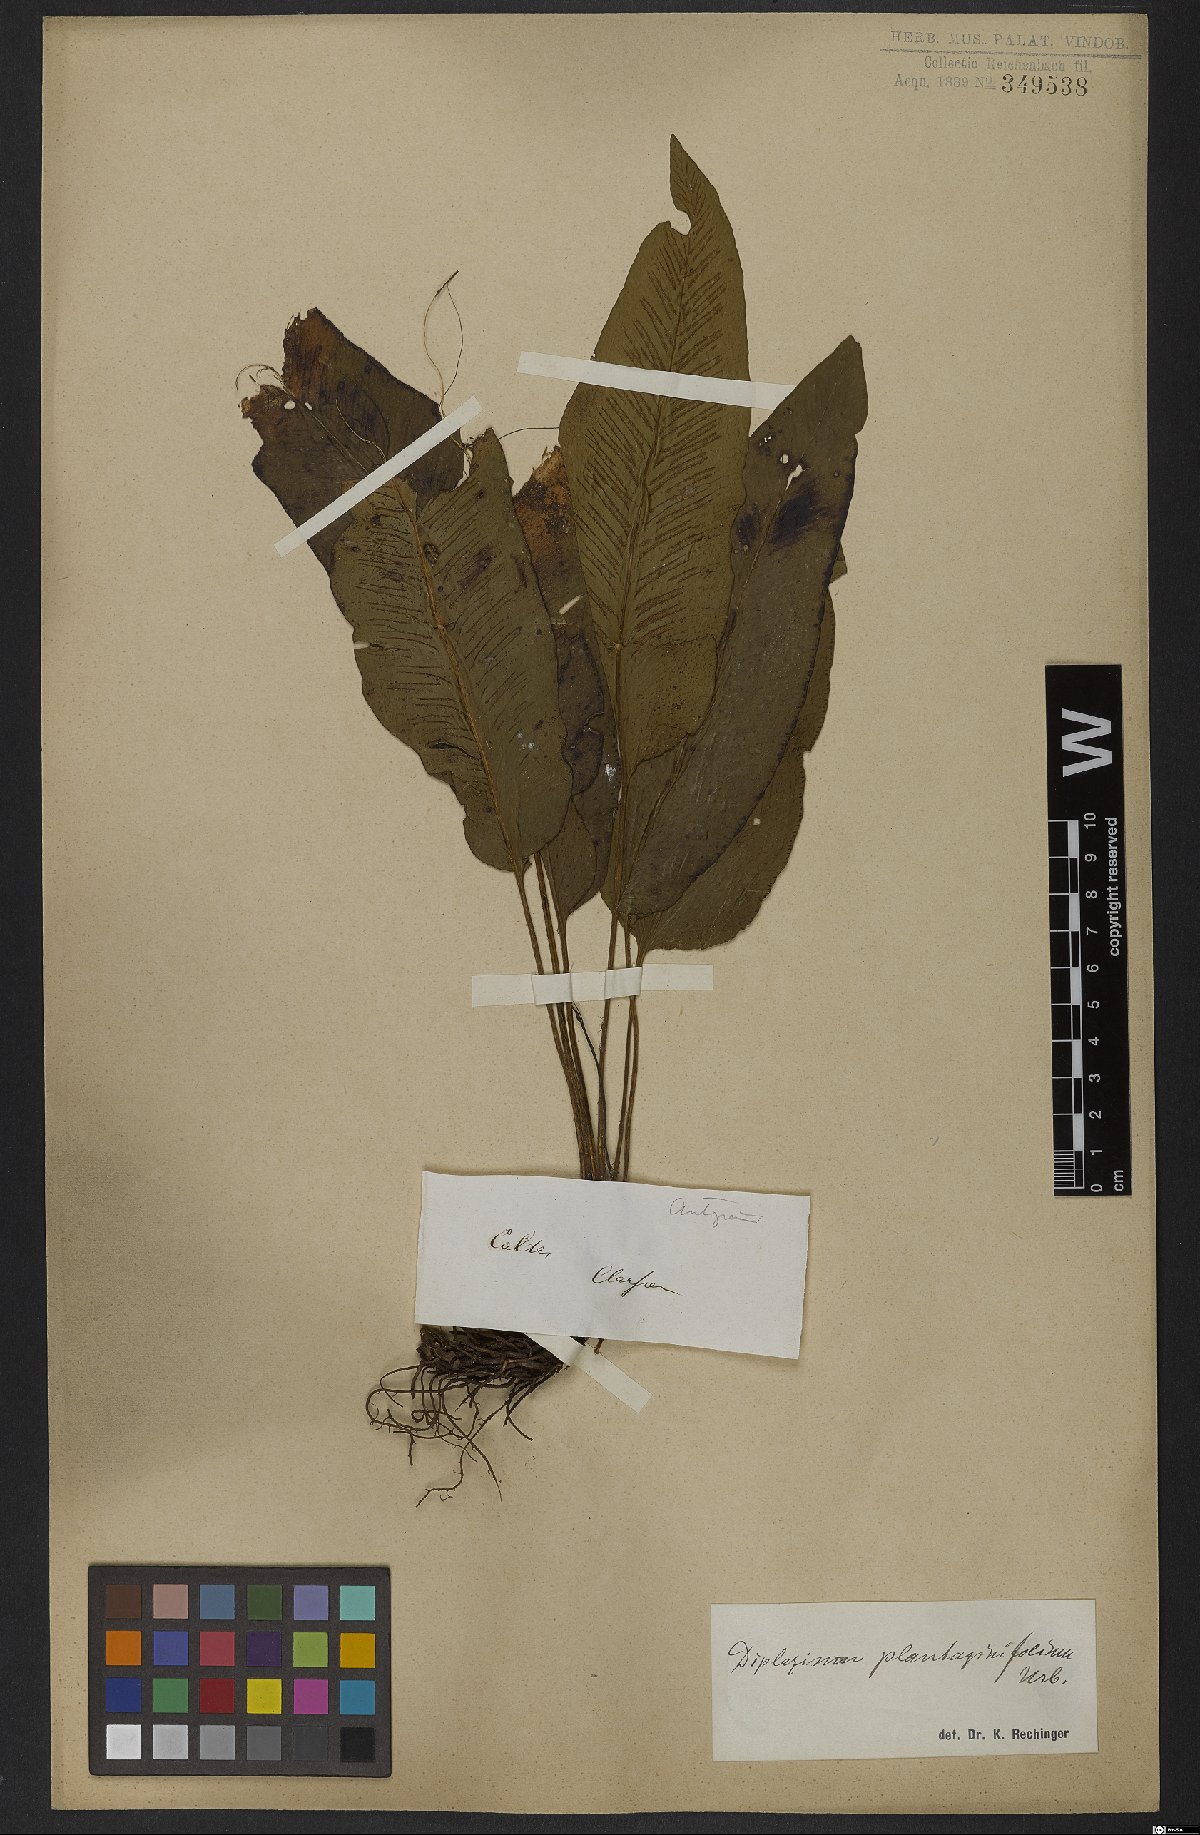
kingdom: Plantae
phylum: Tracheophyta
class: Polypodiopsida
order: Polypodiales
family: Athyriaceae
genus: Diplazium
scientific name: Diplazium plantaginifolium
